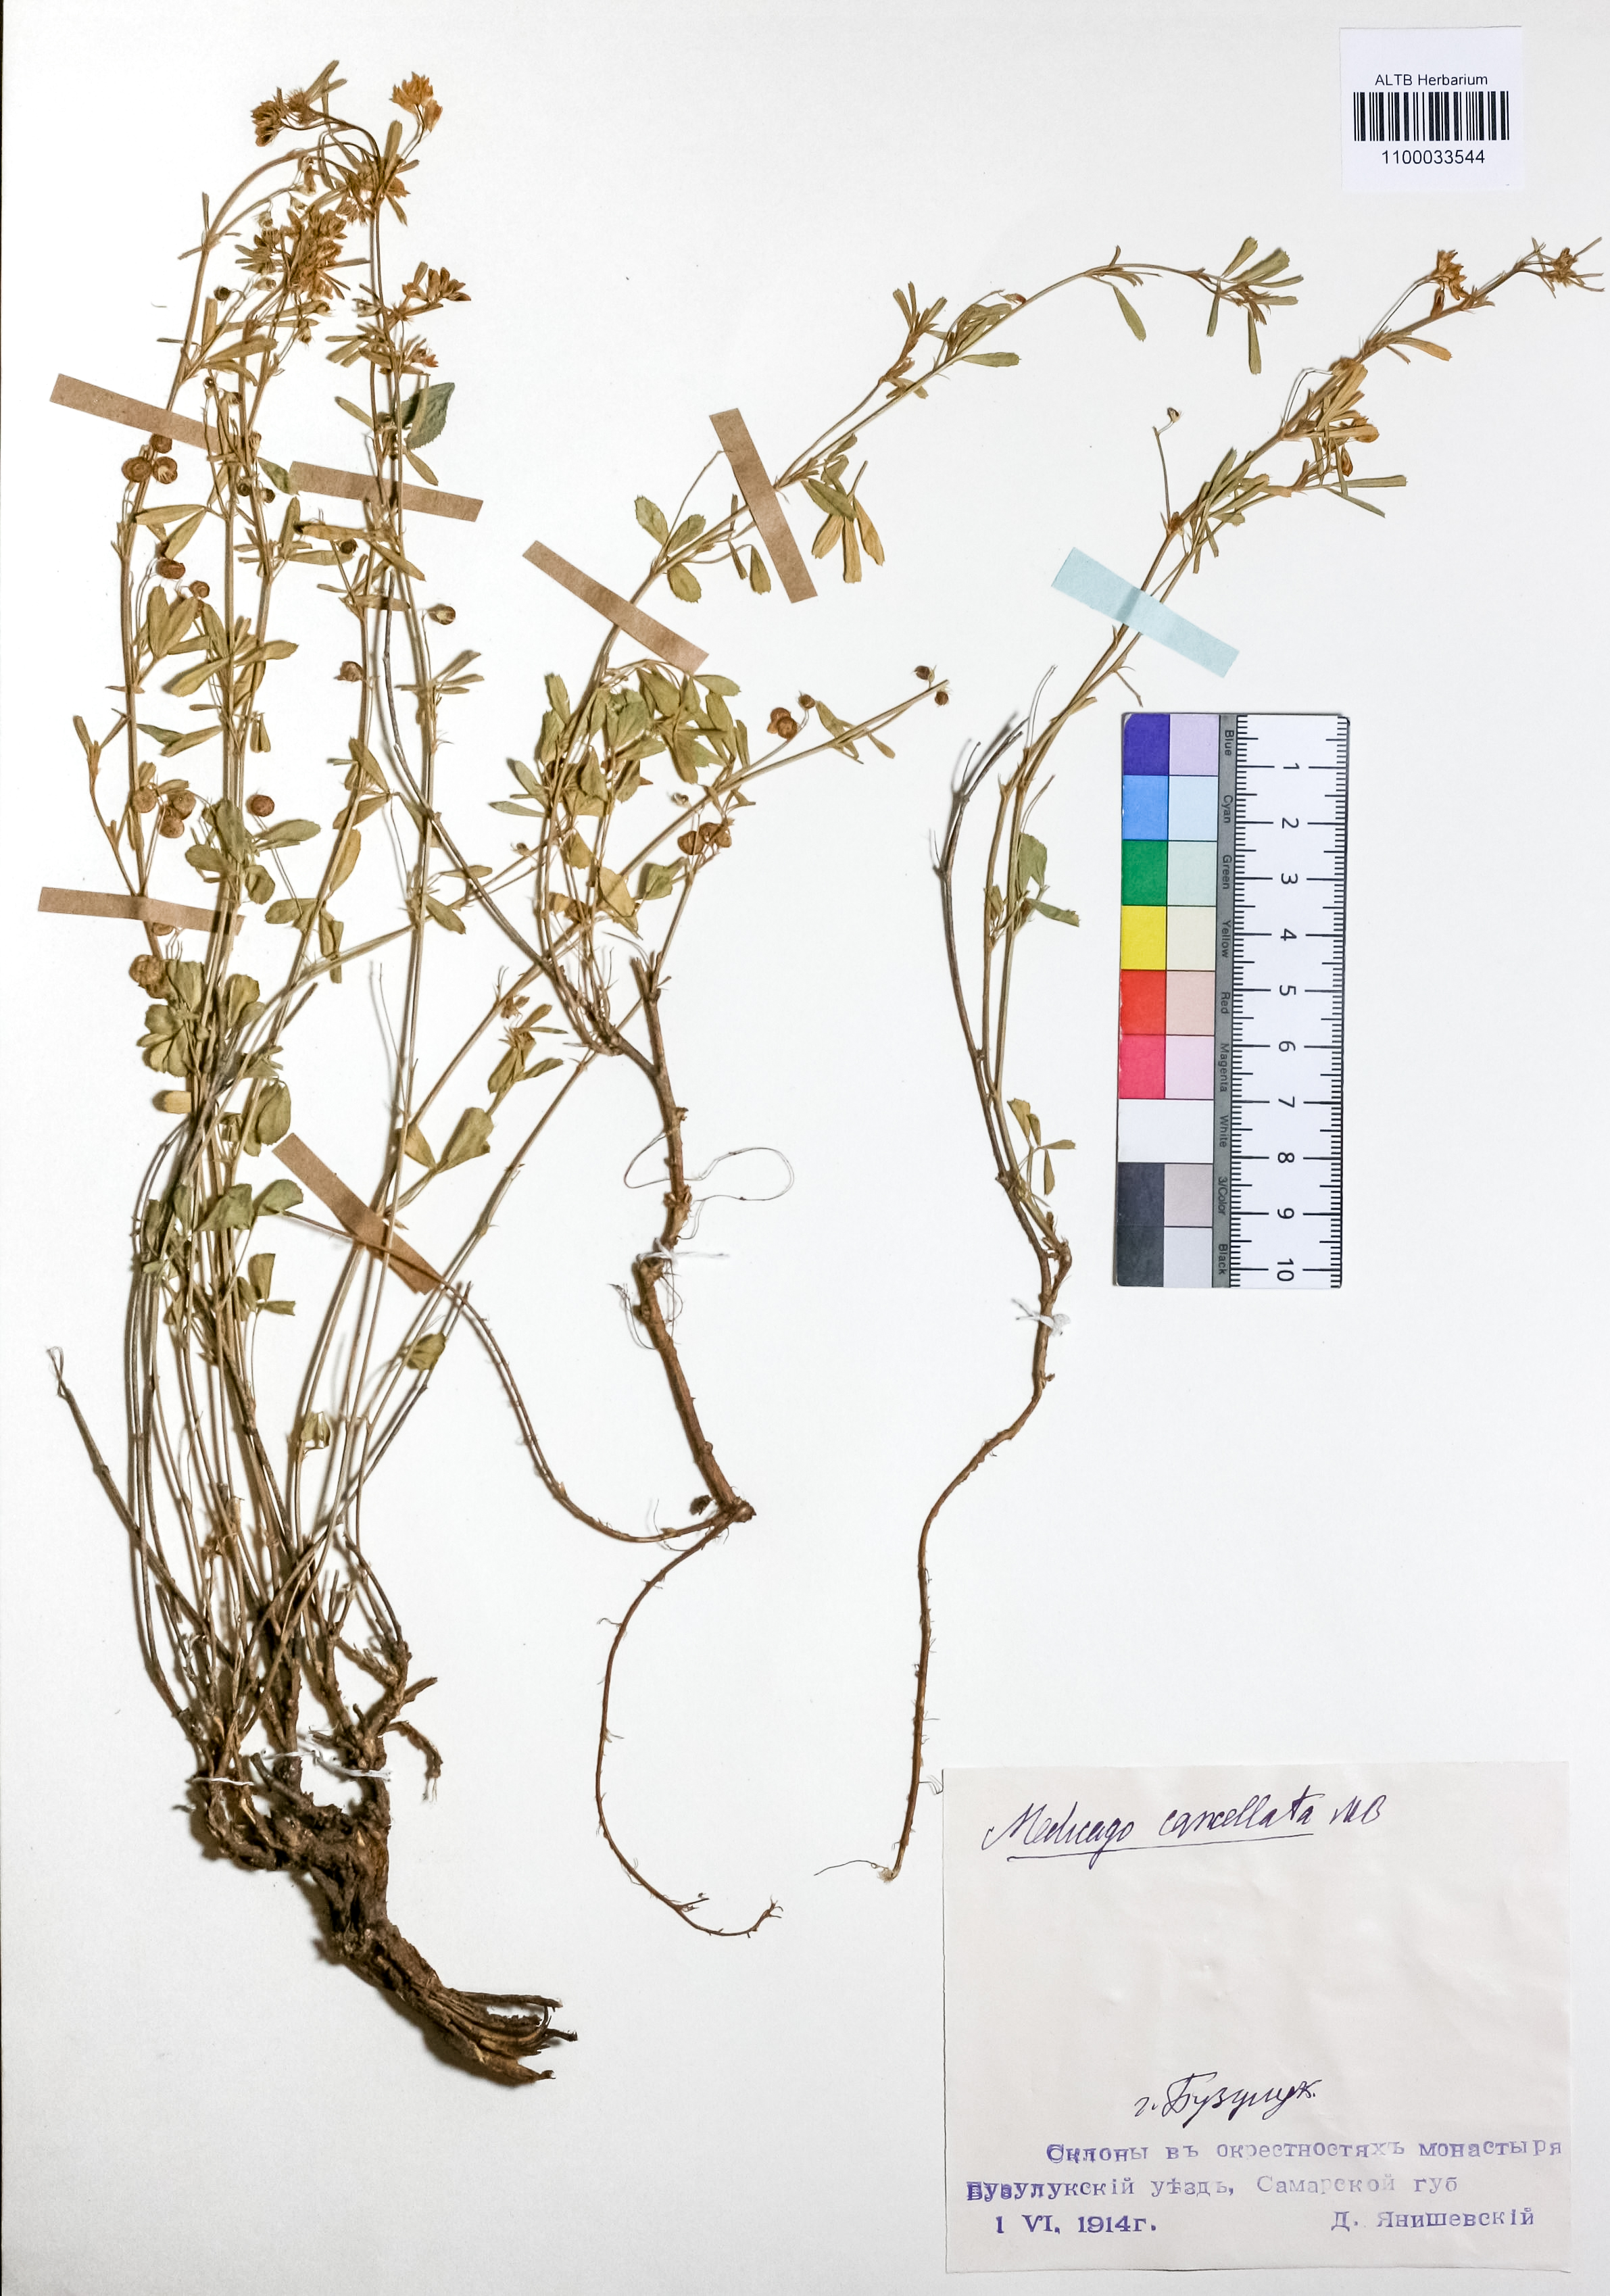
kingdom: Plantae
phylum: Tracheophyta
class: Magnoliopsida
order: Fabales
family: Fabaceae
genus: Medicago
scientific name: Medicago cancellata
